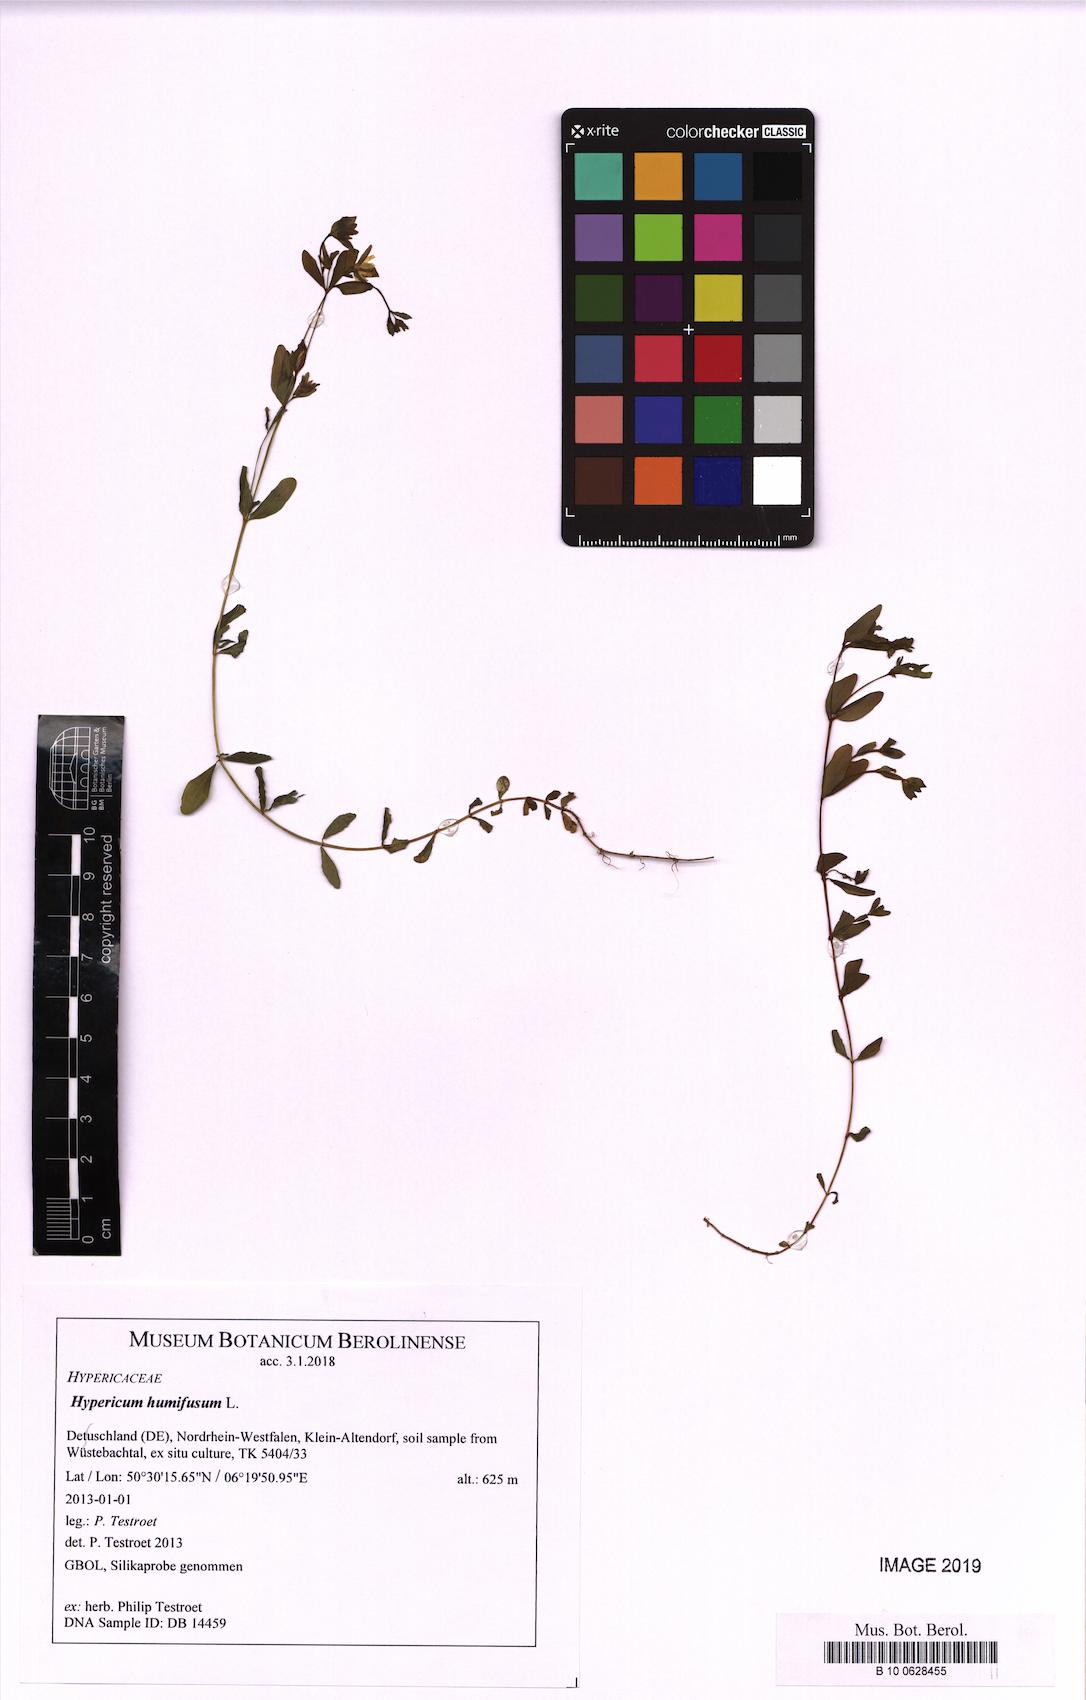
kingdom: Plantae
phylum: Tracheophyta
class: Magnoliopsida
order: Malpighiales
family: Hypericaceae
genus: Hypericum
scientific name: Hypericum humifusum
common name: Trailing st. john's-wort
